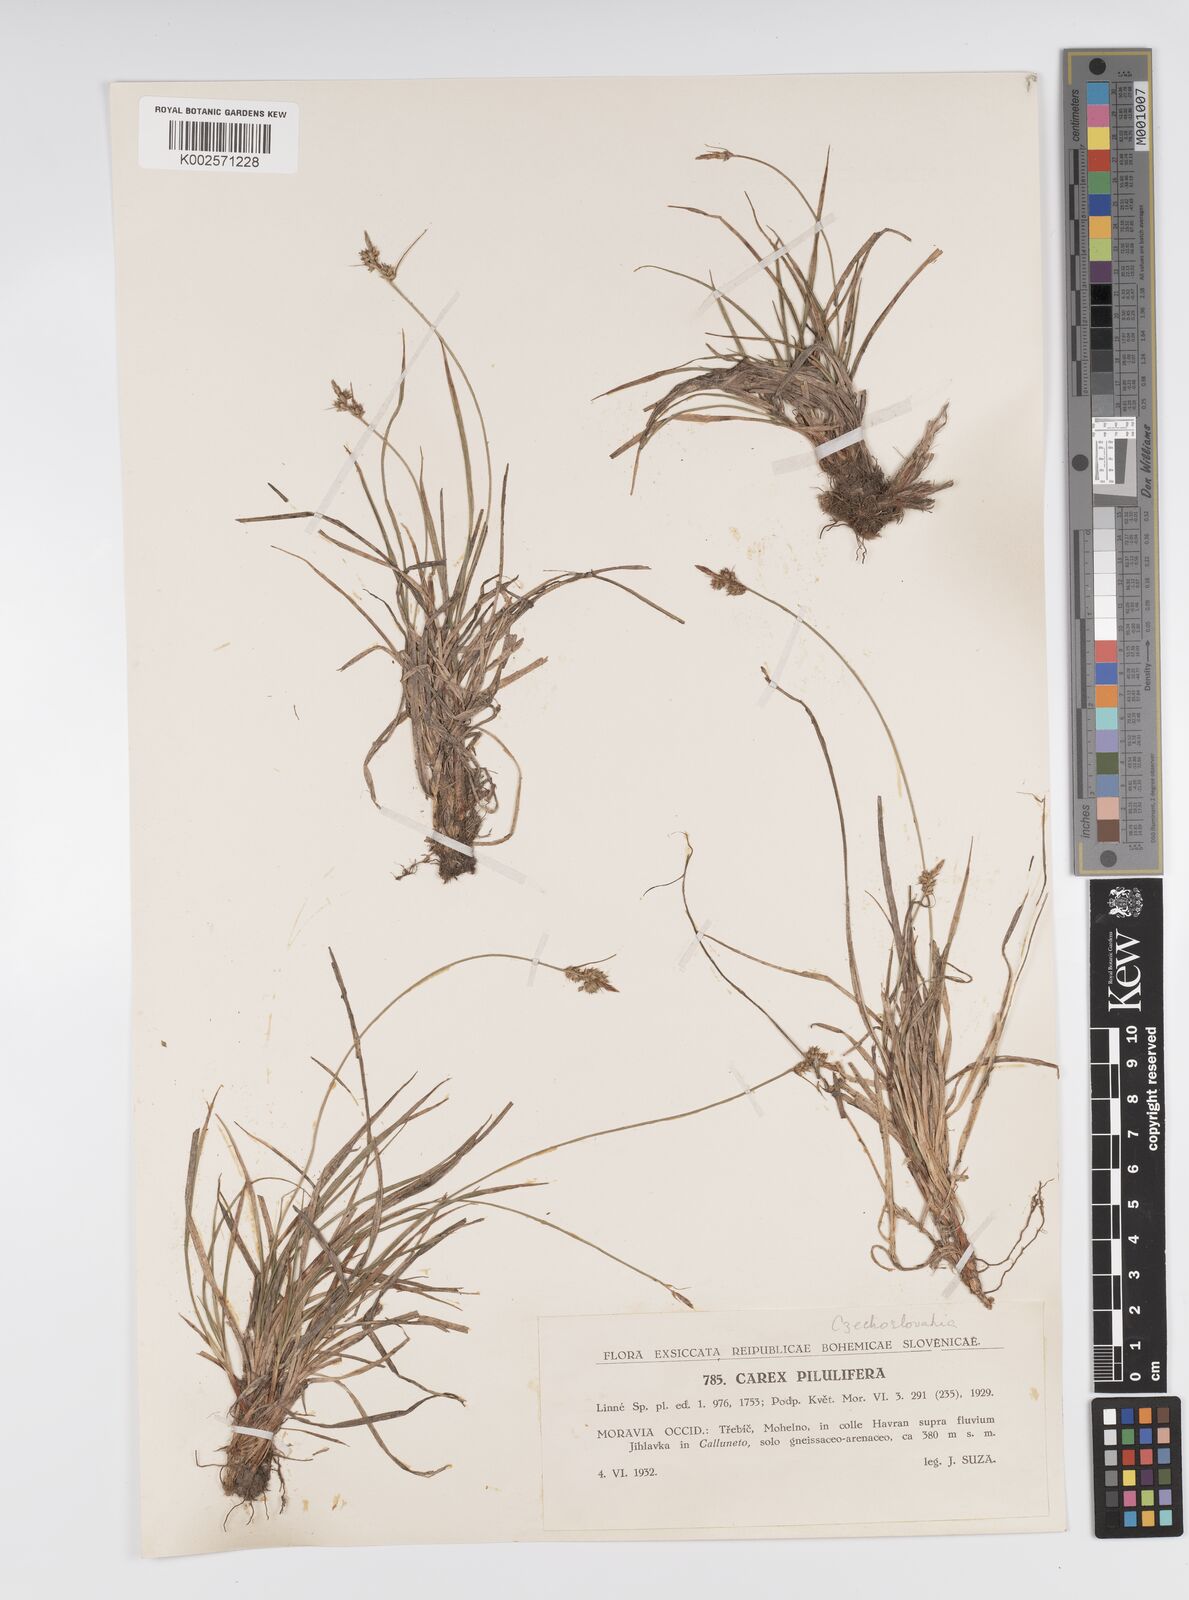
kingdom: Plantae
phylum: Tracheophyta
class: Liliopsida
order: Poales
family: Cyperaceae
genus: Carex
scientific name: Carex pilulifera
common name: Pill sedge
